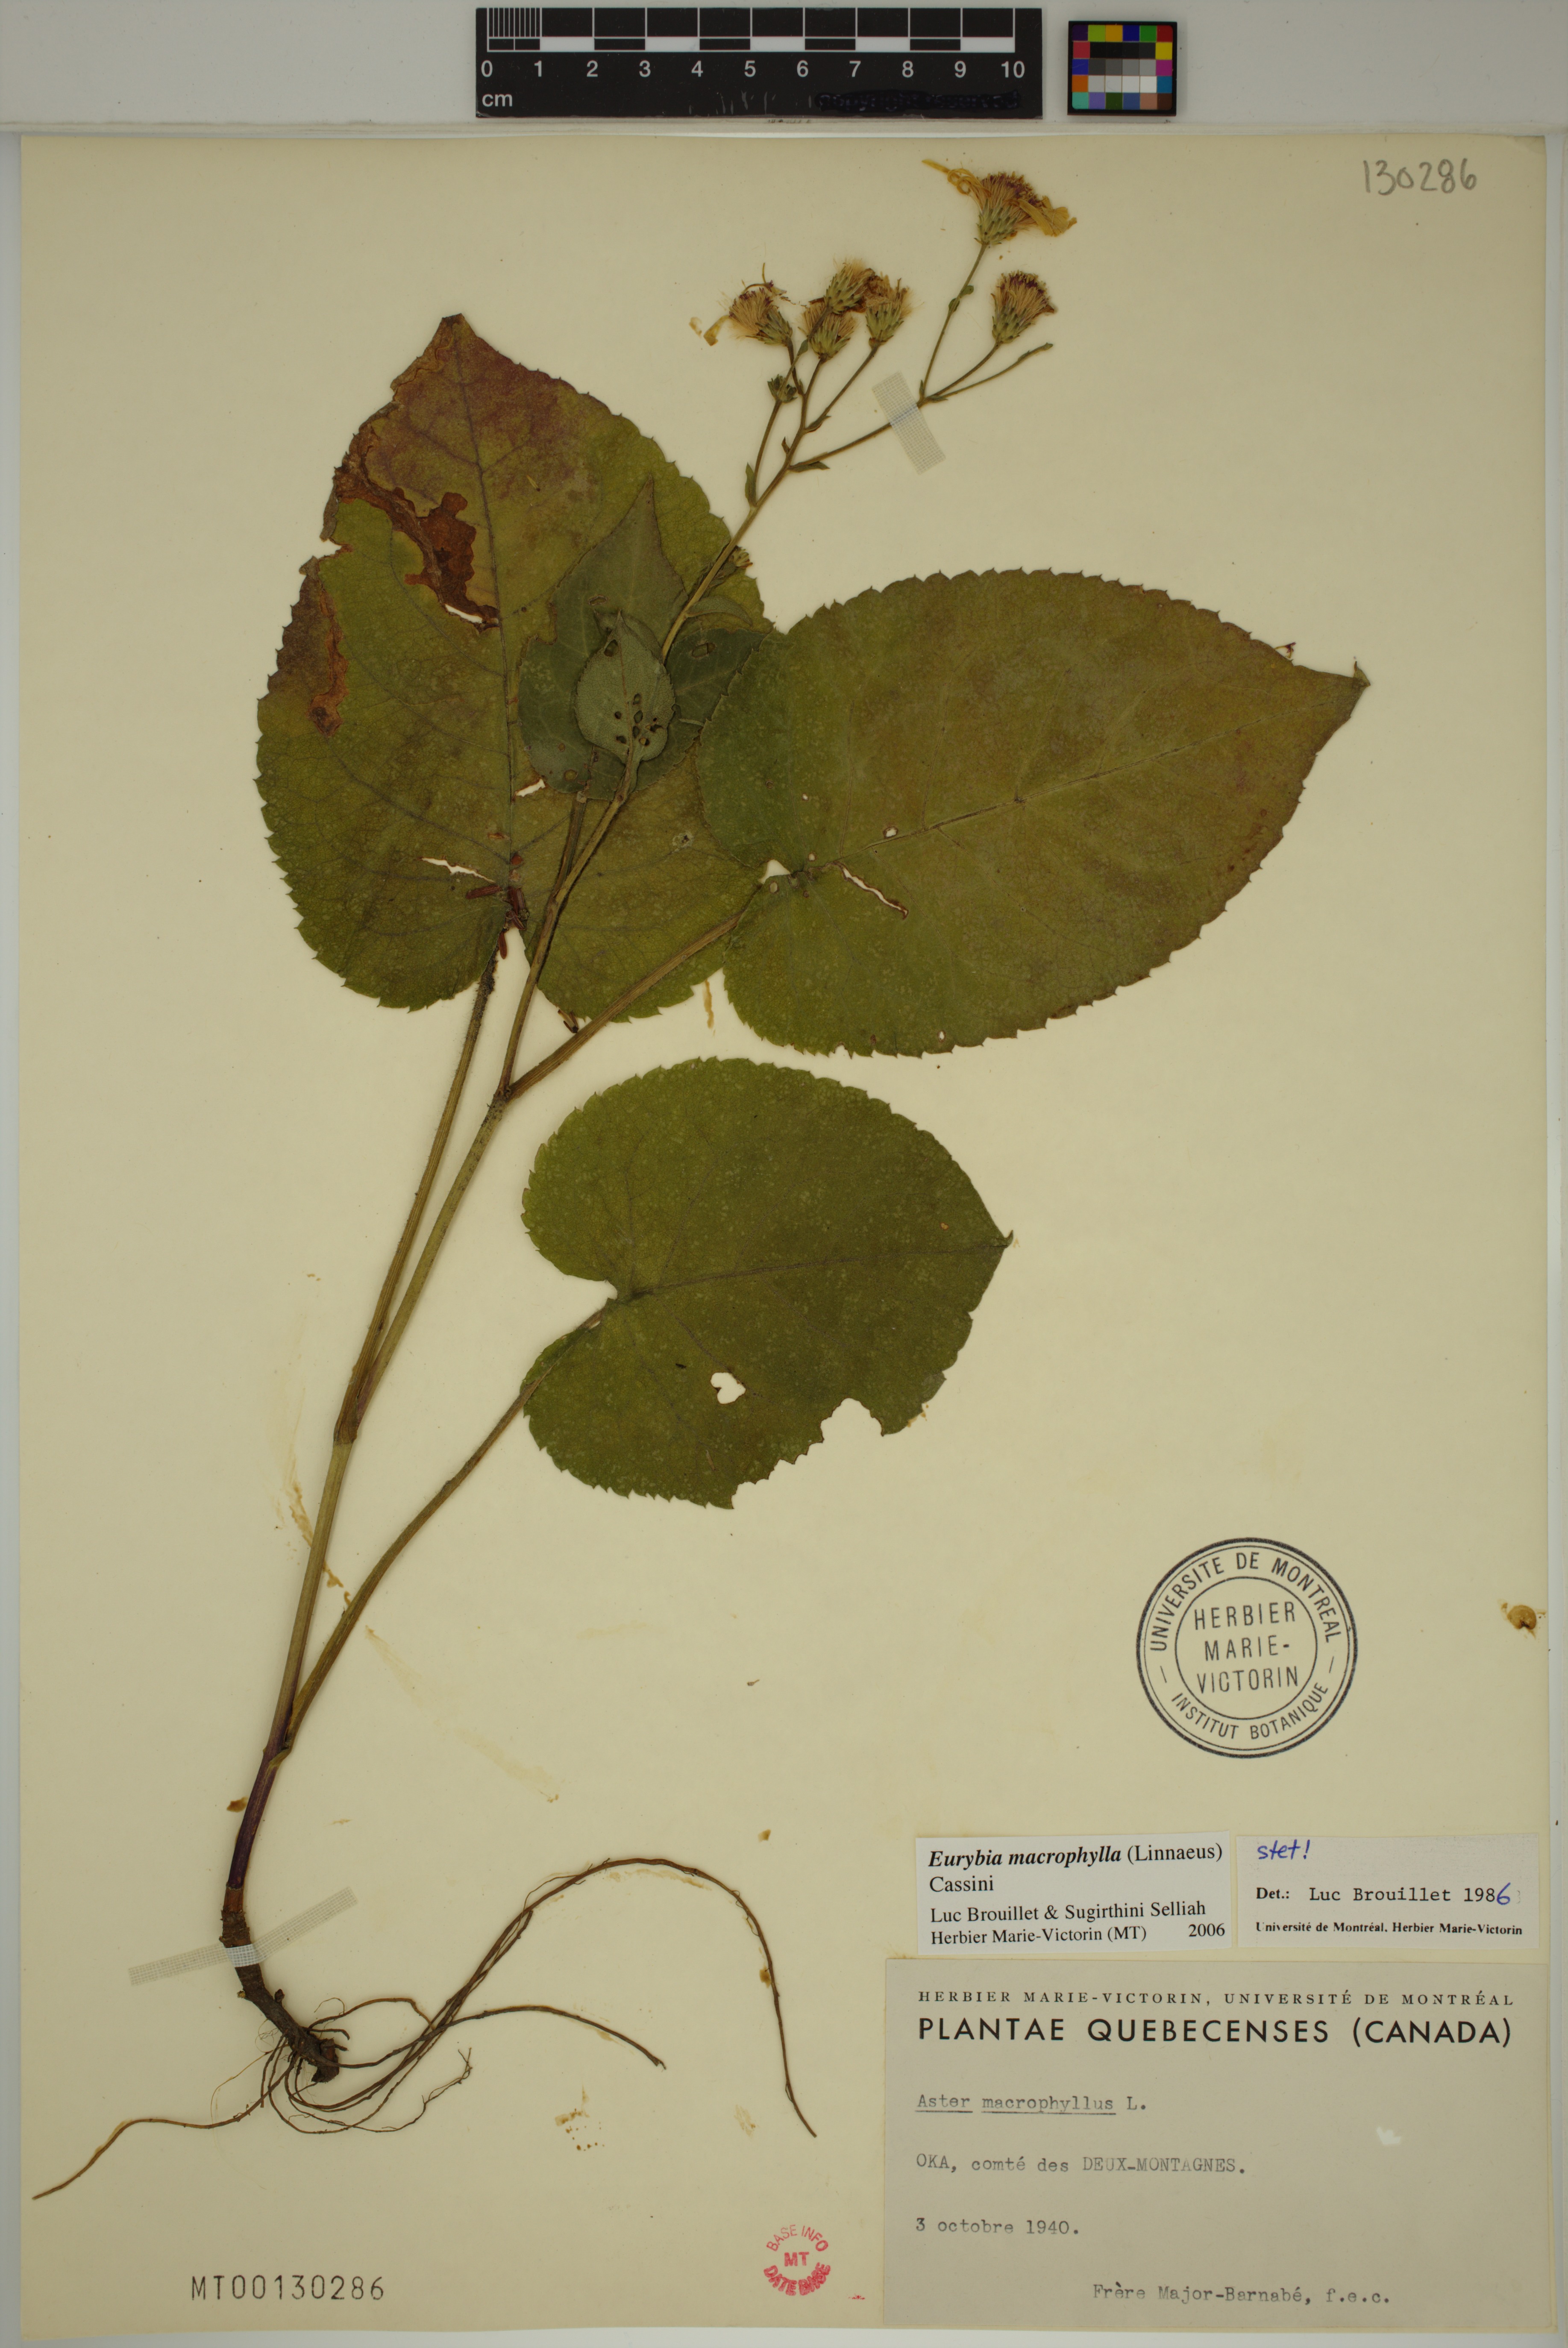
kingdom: Plantae
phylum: Tracheophyta
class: Magnoliopsida
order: Asterales
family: Asteraceae
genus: Eurybia
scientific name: Eurybia macrophylla
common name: Big-leaved aster
